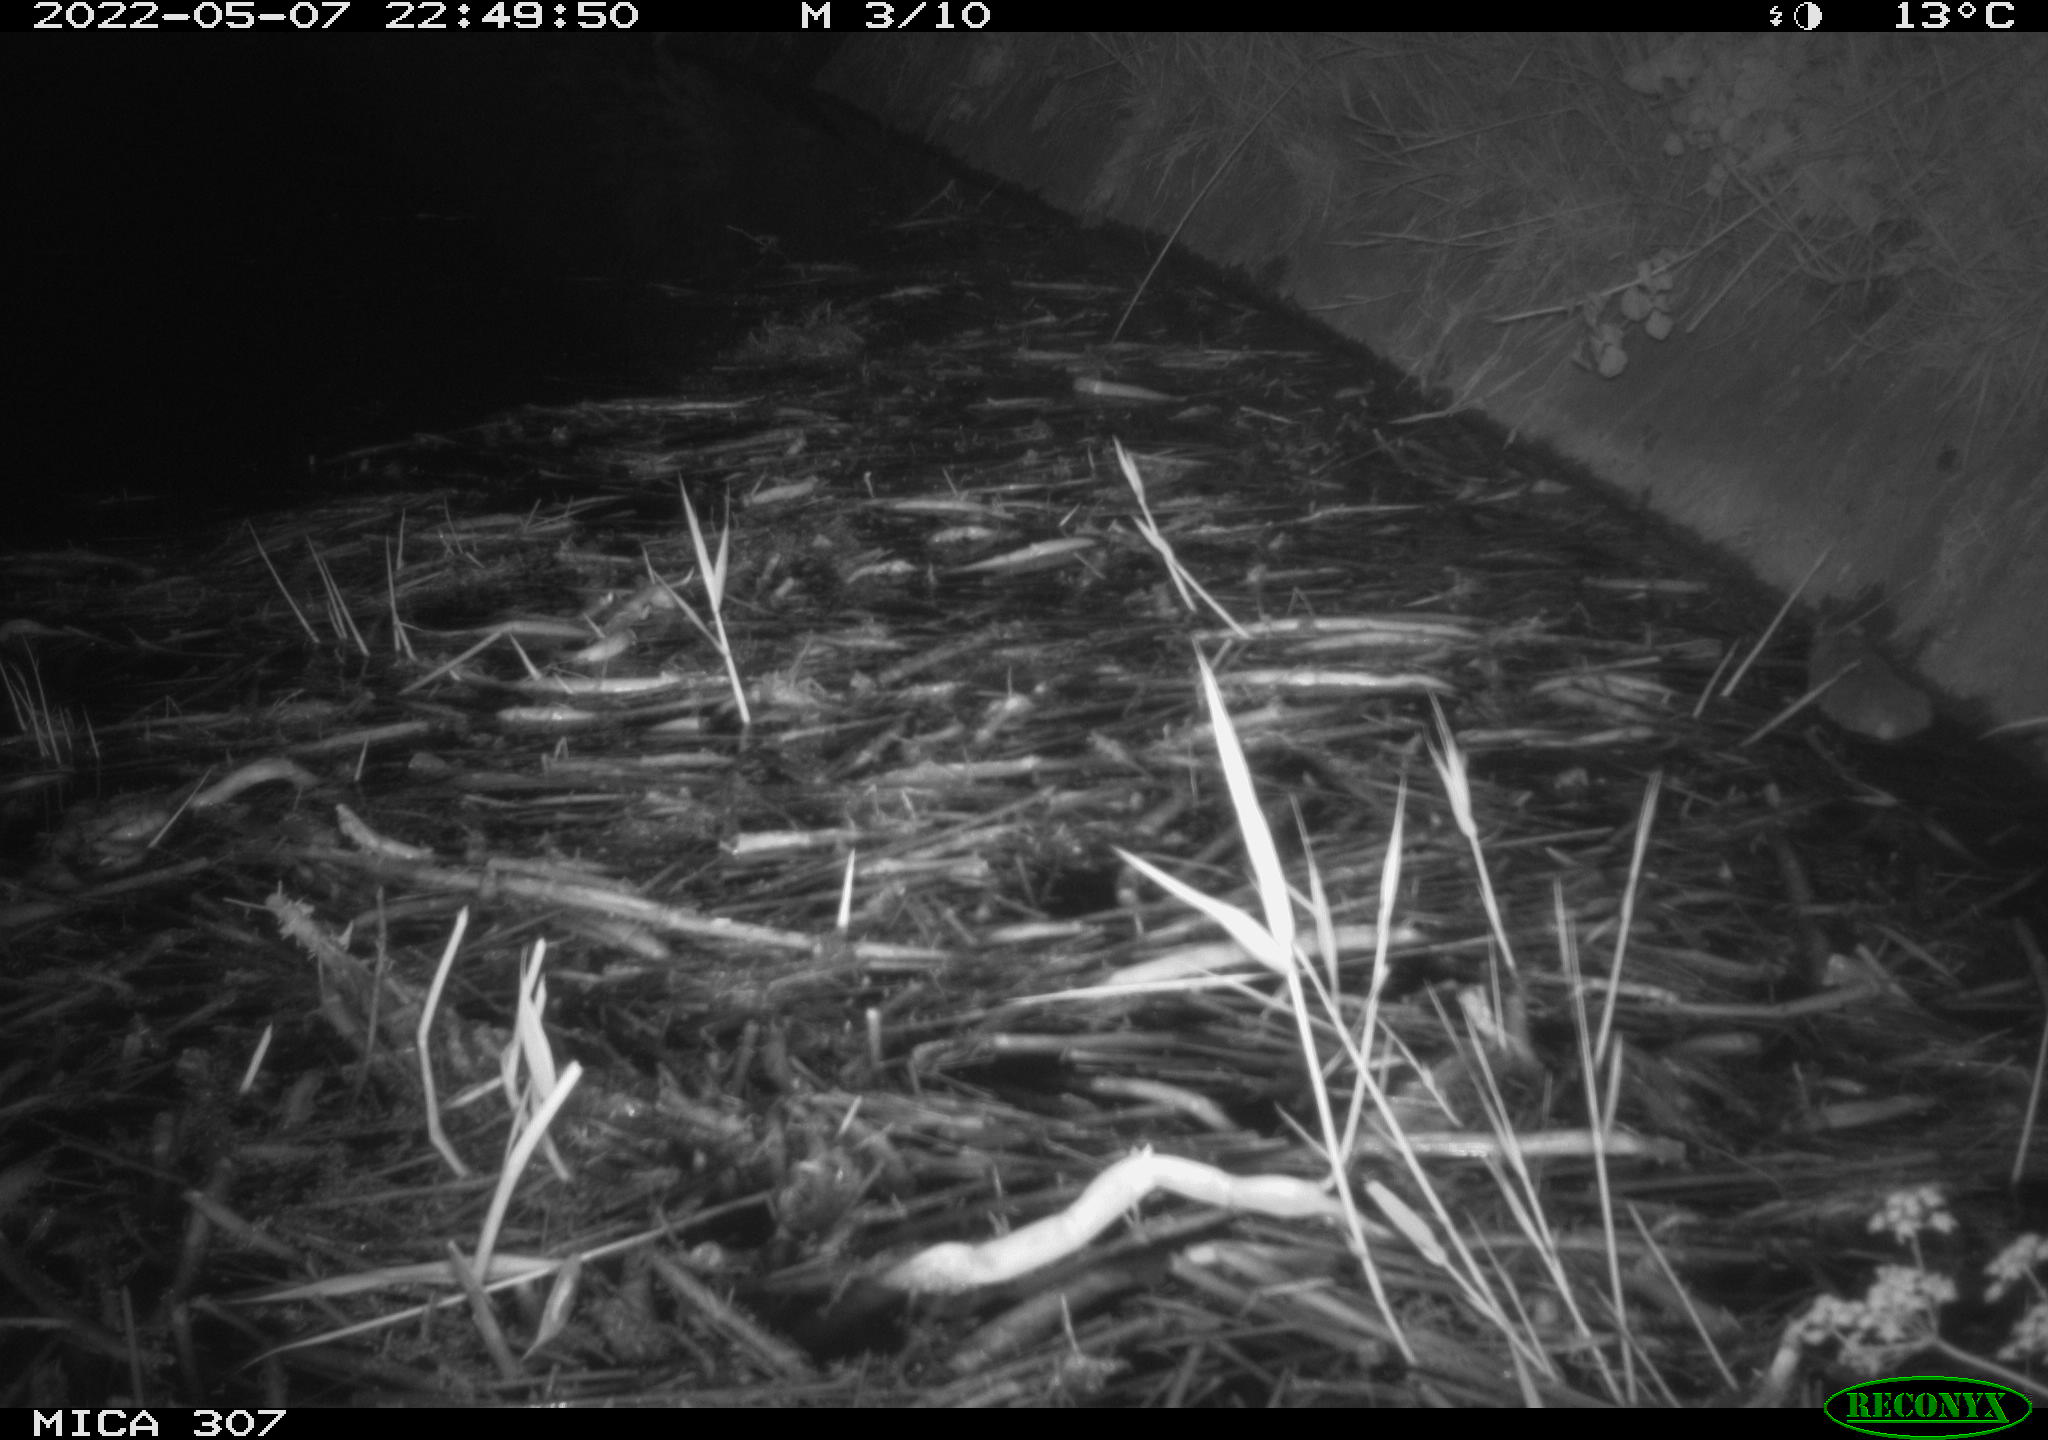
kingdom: Animalia
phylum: Chordata
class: Mammalia
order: Rodentia
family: Cricetidae
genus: Ondatra
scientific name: Ondatra zibethicus
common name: Muskrat
